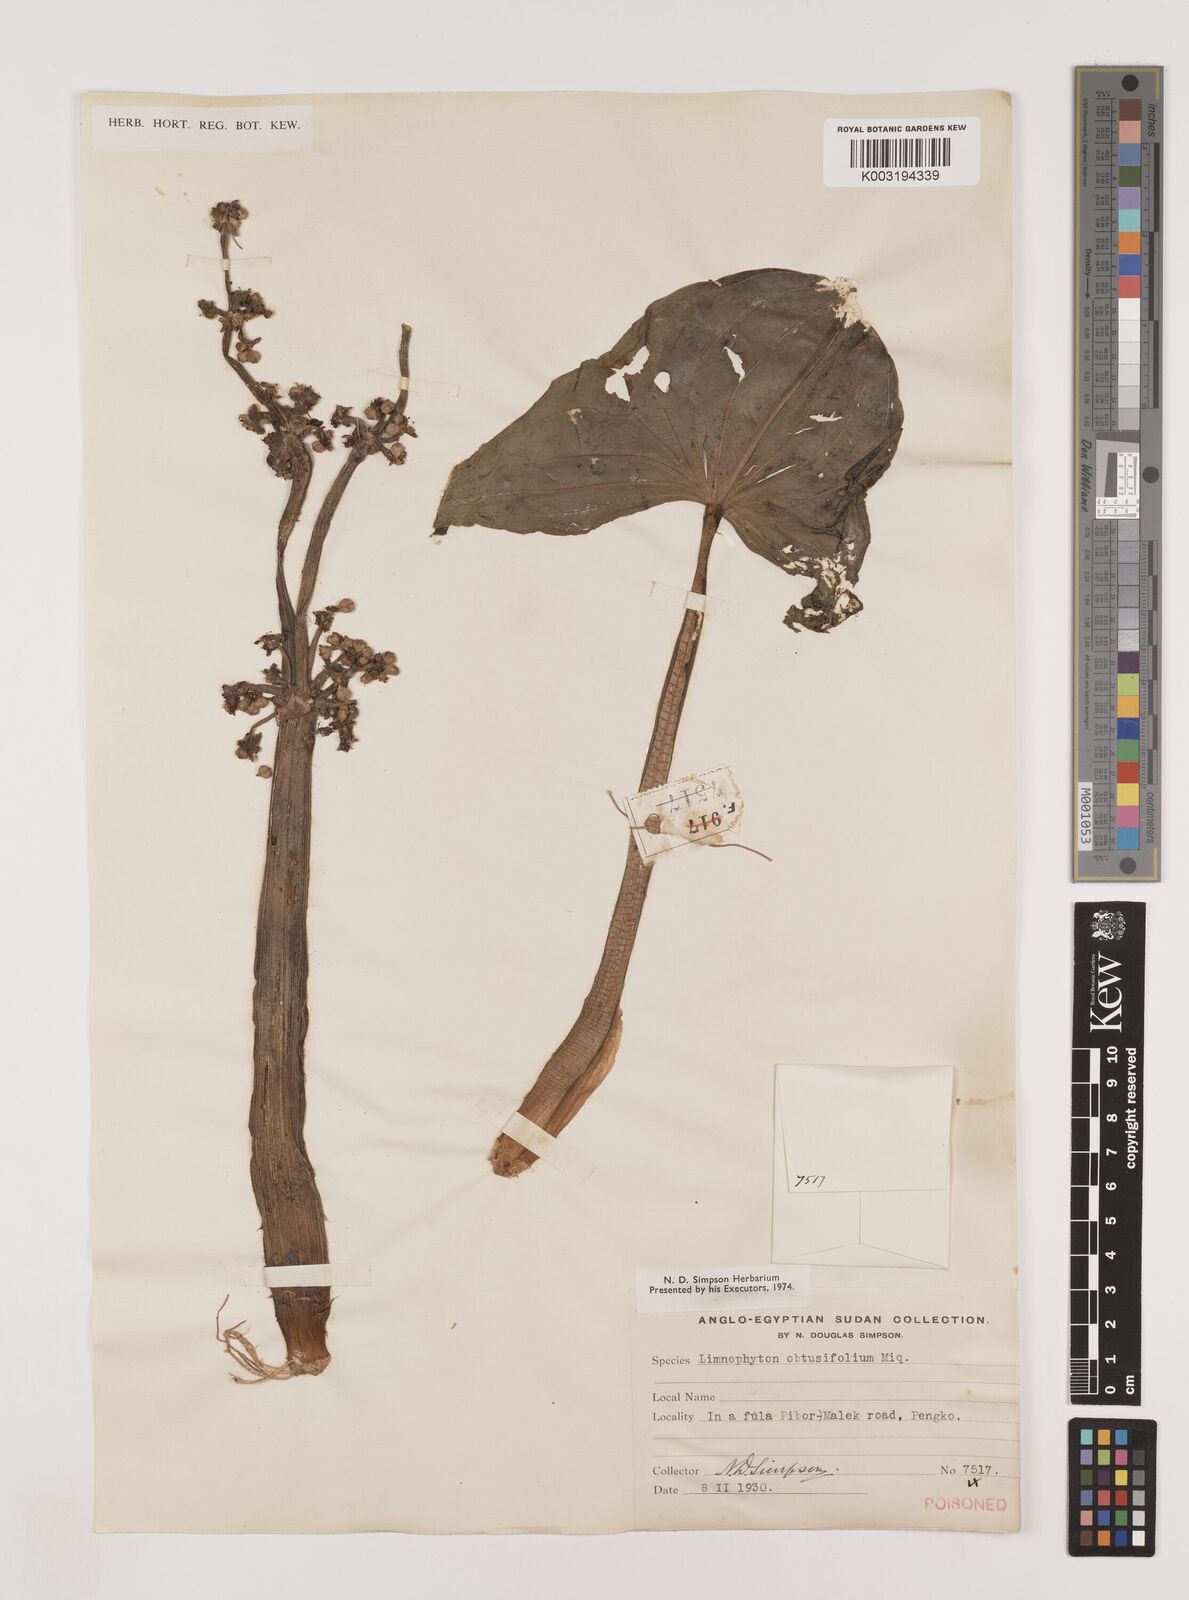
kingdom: Plantae
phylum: Tracheophyta
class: Liliopsida
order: Alismatales
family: Alismataceae
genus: Limnophyton
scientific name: Limnophyton obtusifolium
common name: Arrow head
